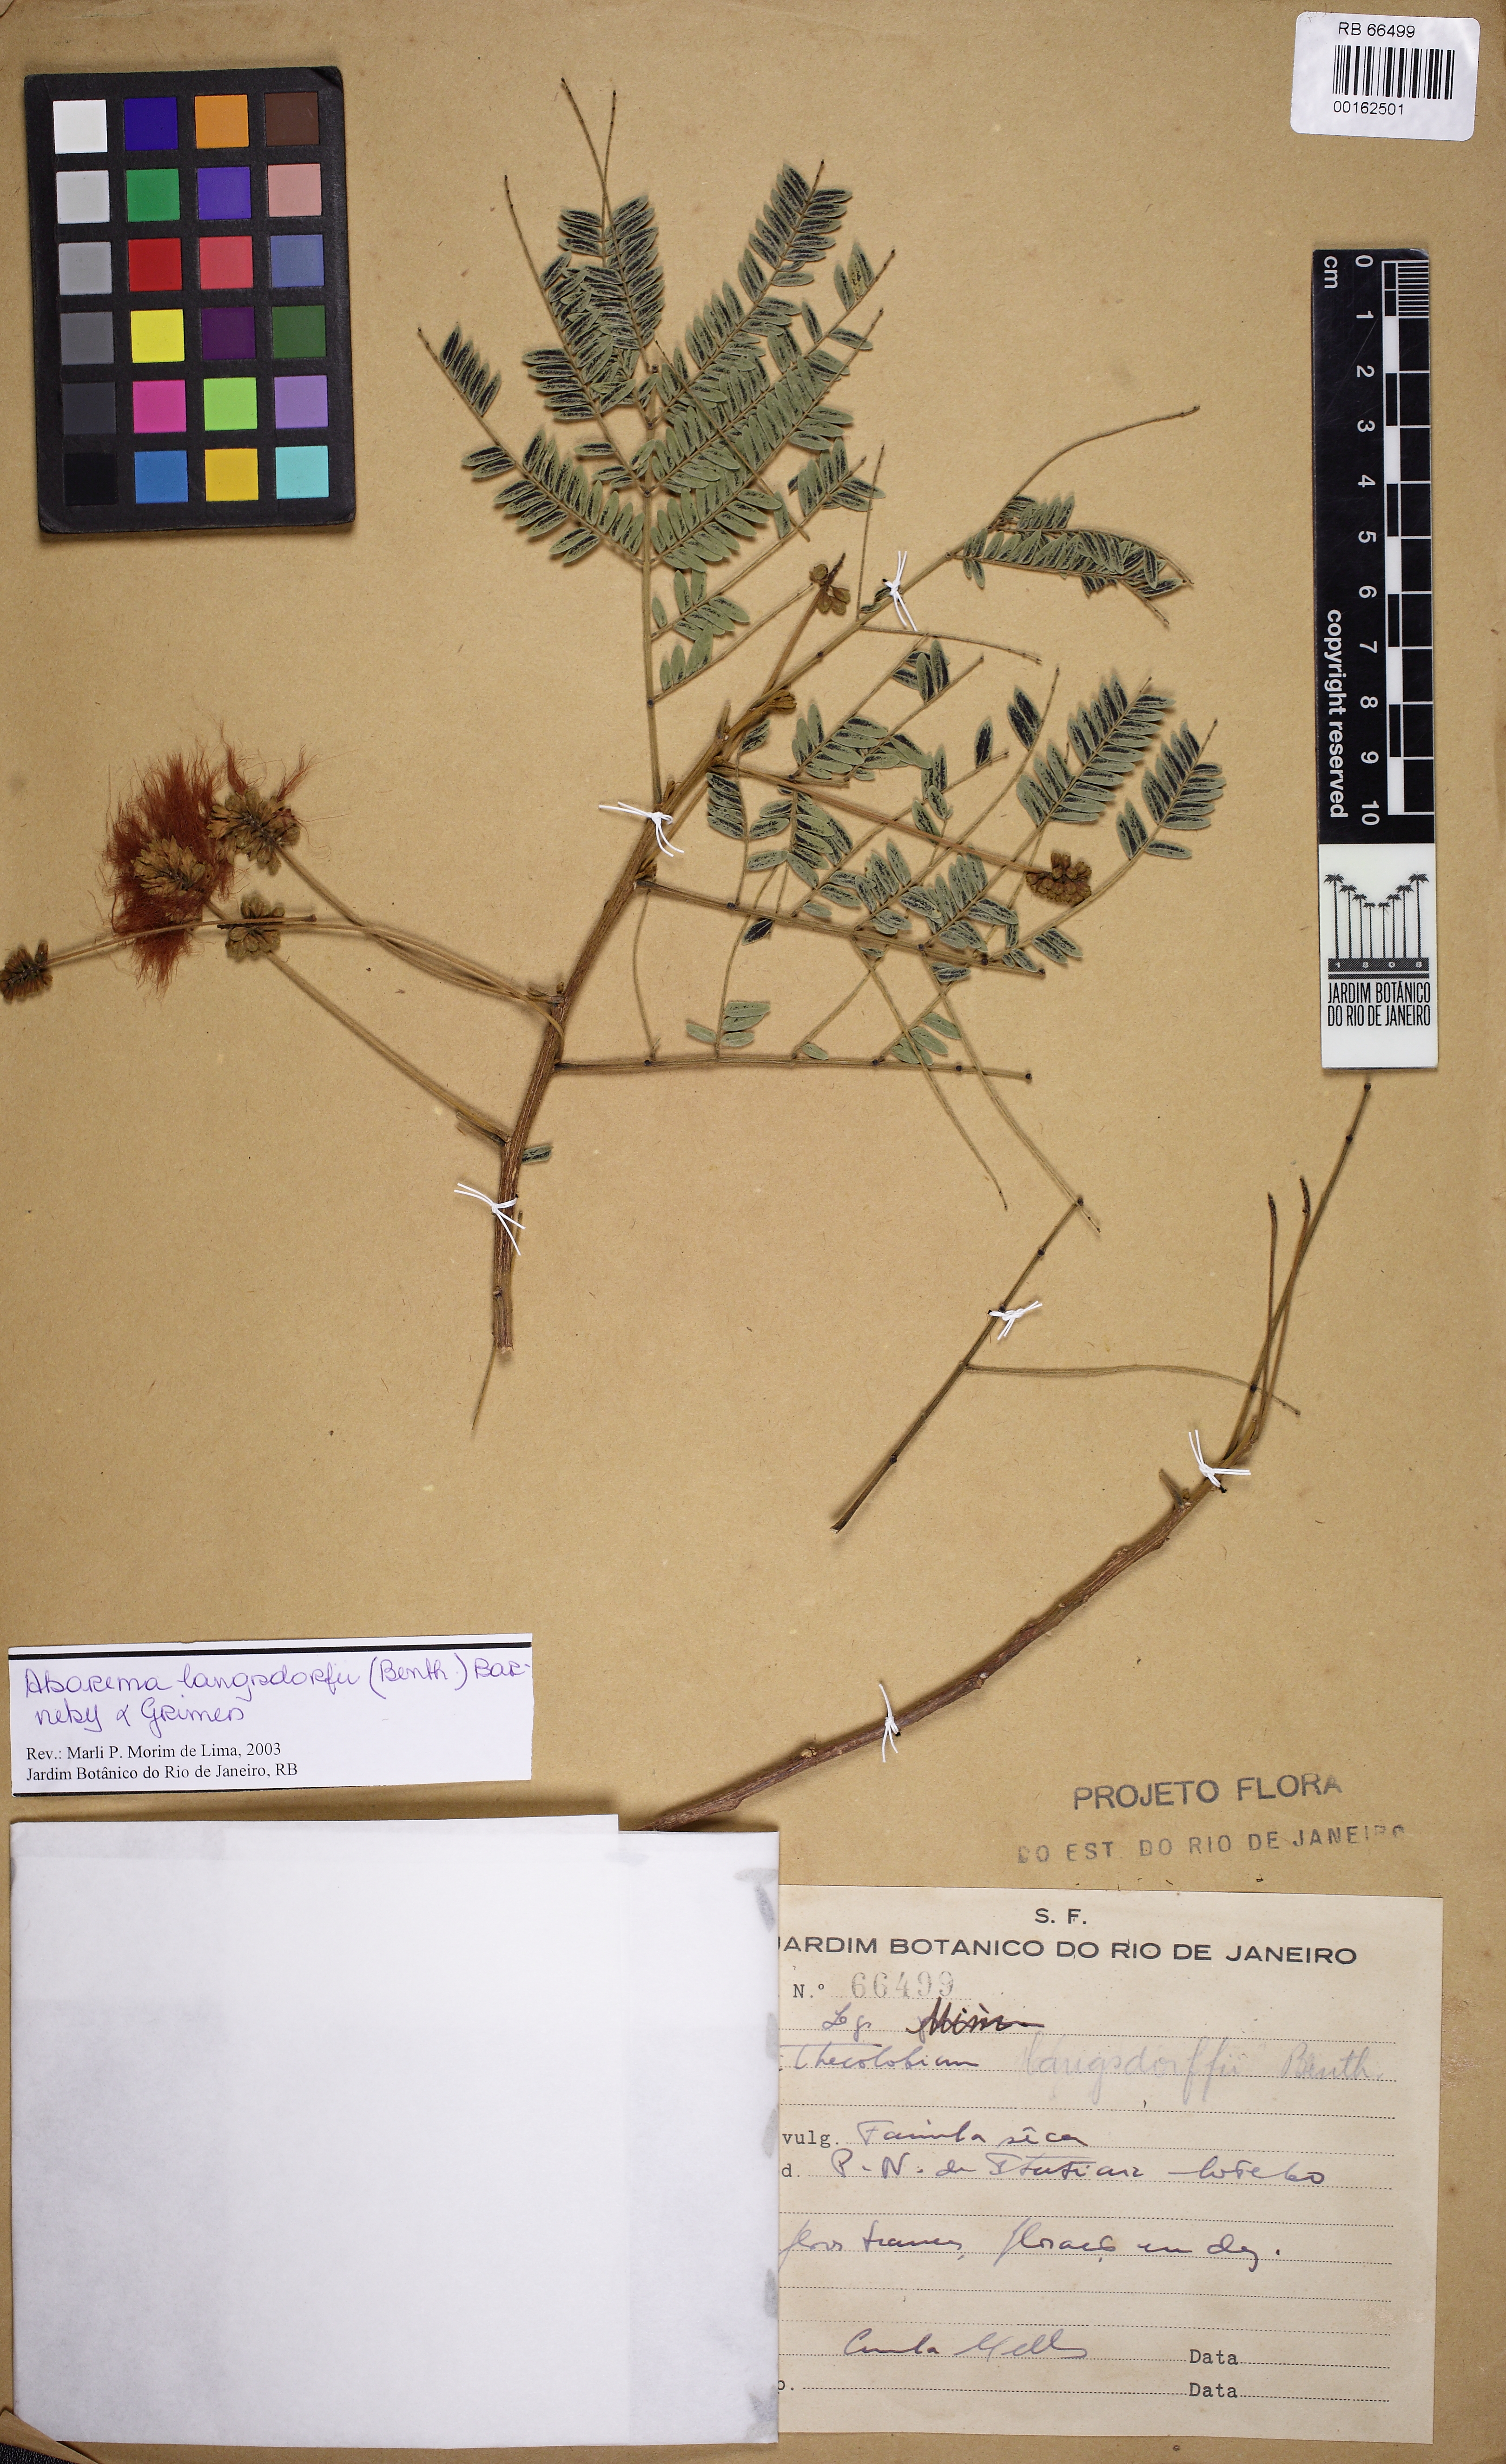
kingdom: Plantae
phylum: Tracheophyta
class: Magnoliopsida
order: Fabales
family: Fabaceae
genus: Jupunba
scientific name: Jupunba langsdorffii
